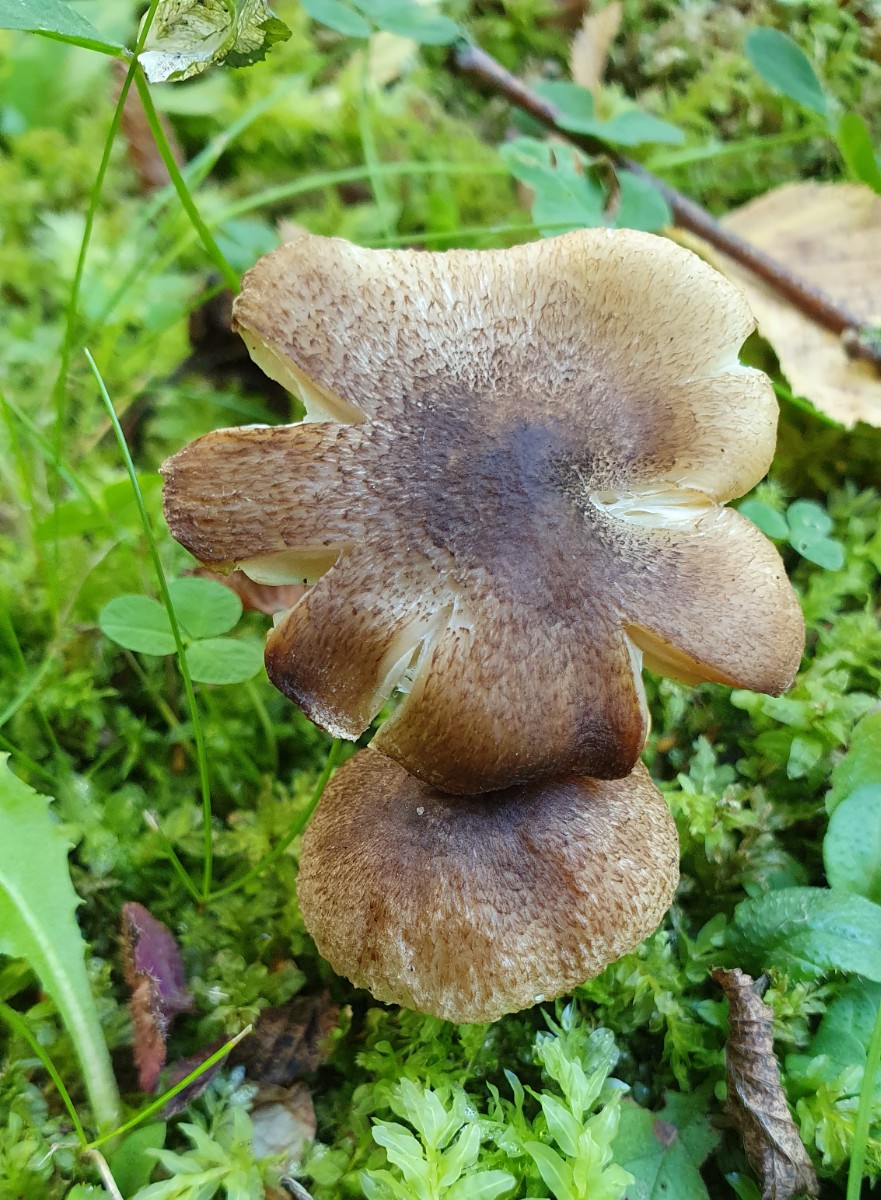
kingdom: Fungi
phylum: Basidiomycota
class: Agaricomycetes
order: Agaricales
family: Tricholomataceae
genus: Tricholoma
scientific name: Tricholoma scalpturatum
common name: gulplettet ridderhat
